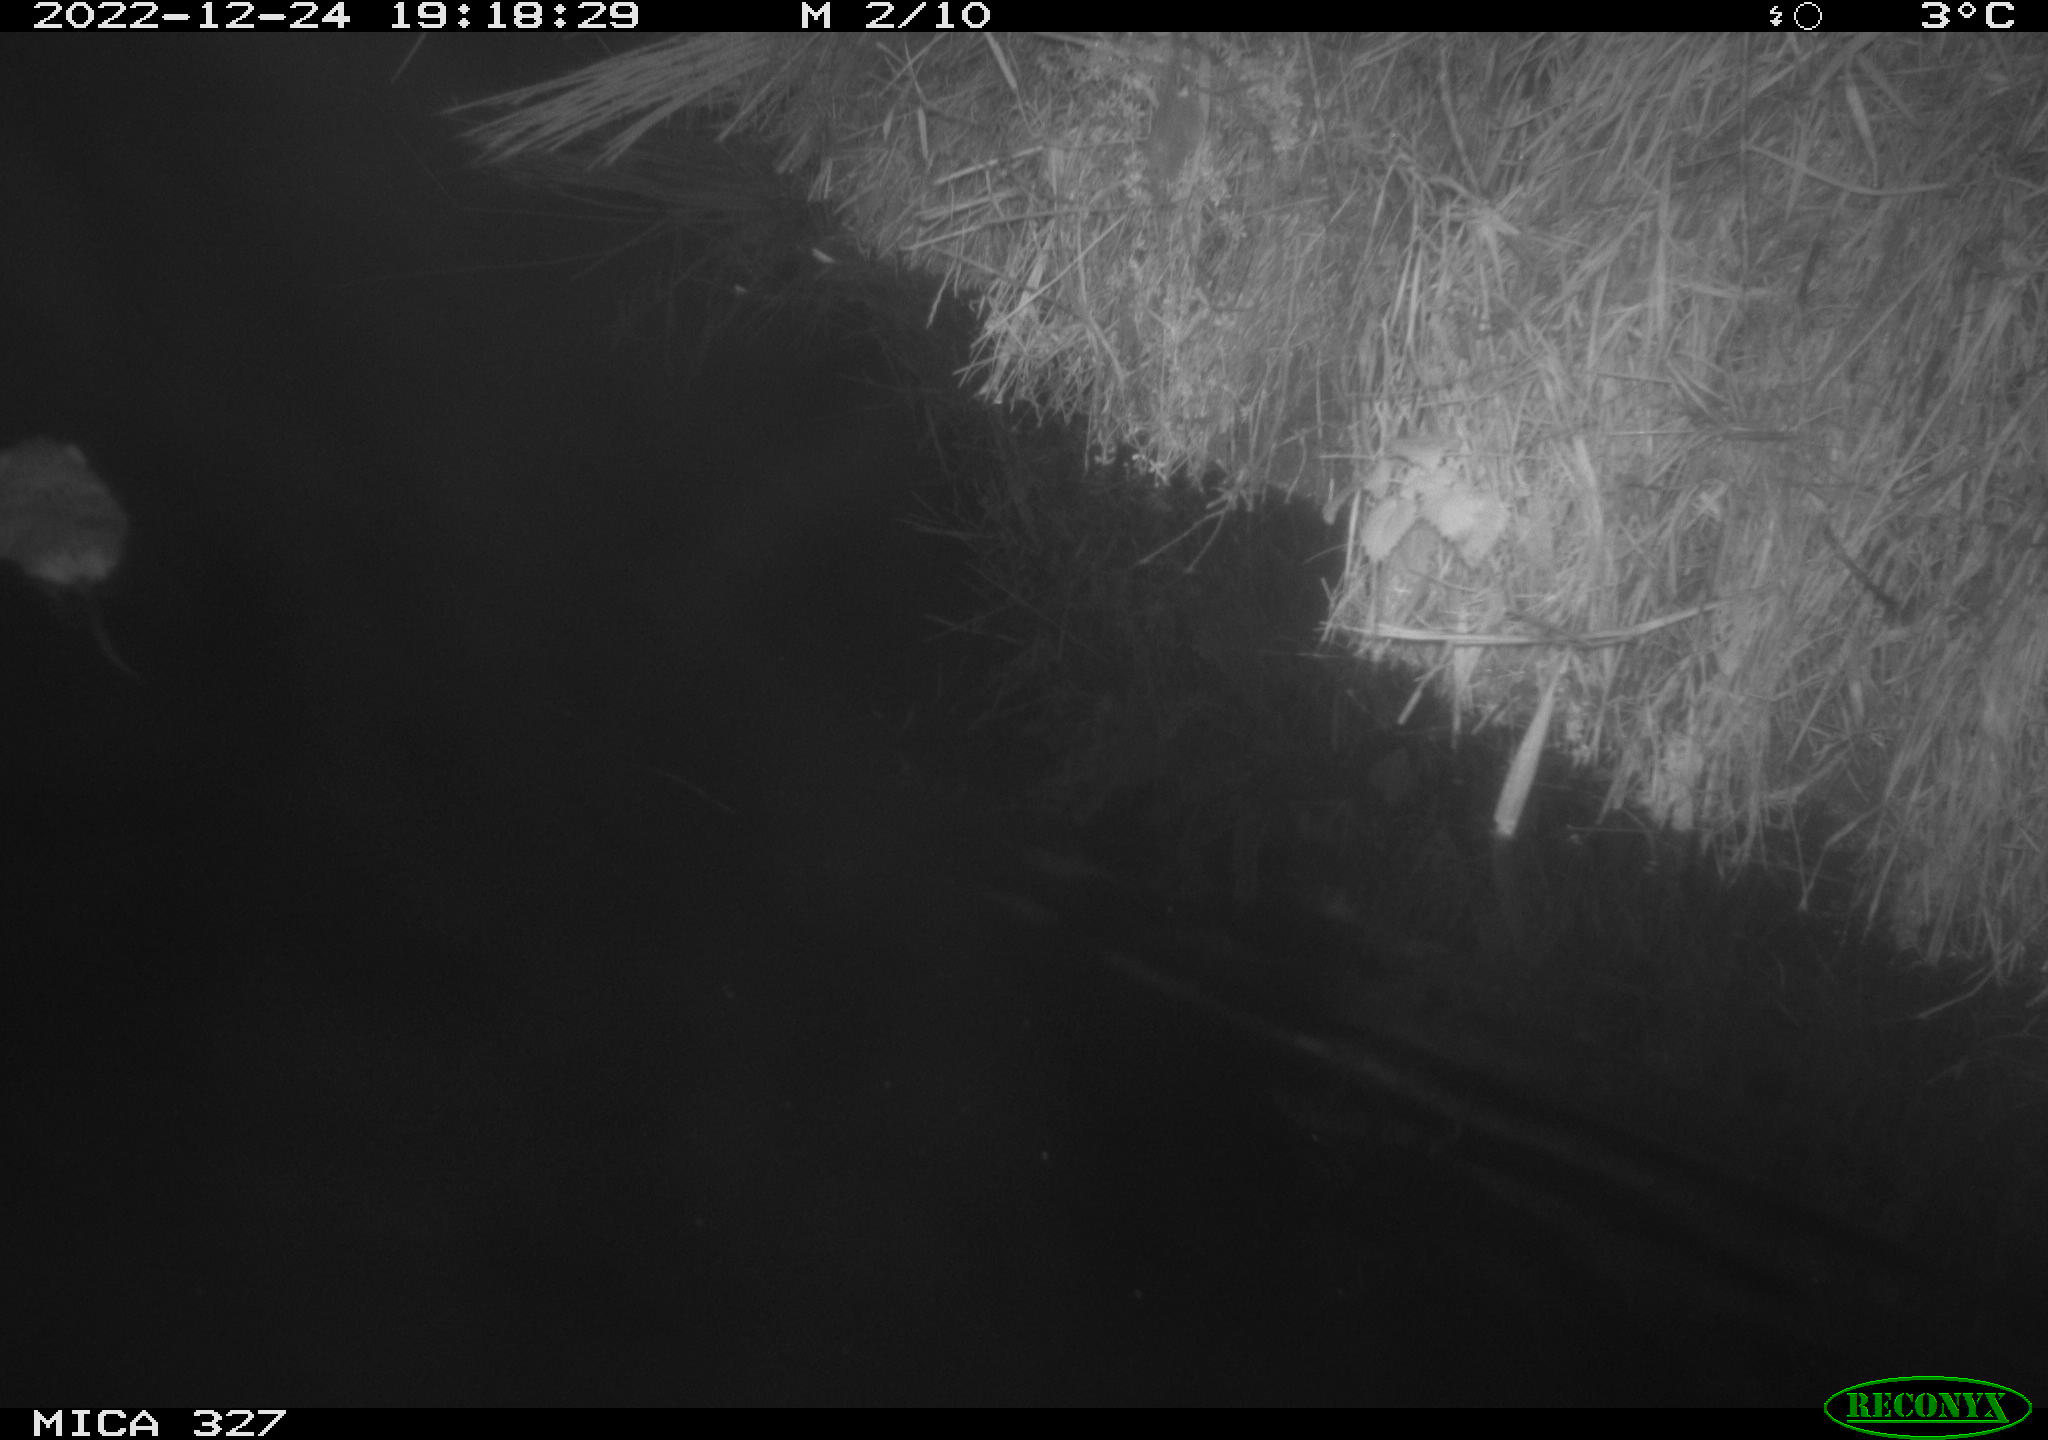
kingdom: Animalia
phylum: Chordata
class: Mammalia
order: Rodentia
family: Cricetidae
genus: Ondatra
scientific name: Ondatra zibethicus
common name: Muskrat
